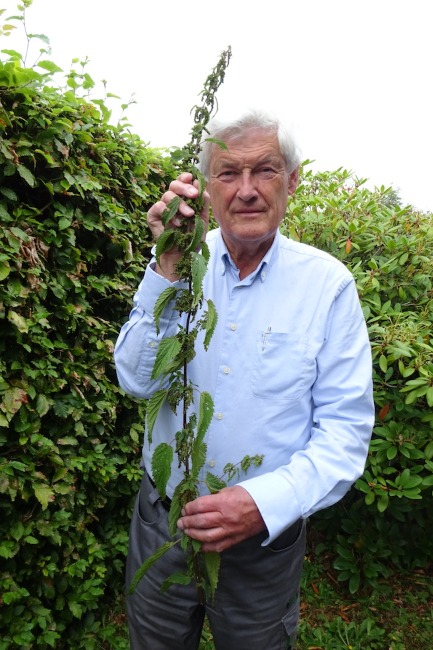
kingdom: Plantae
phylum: Tracheophyta
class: Magnoliopsida
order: Rosales
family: Urticaceae
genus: Urtica
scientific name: Urtica dioica
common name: Skov-nælde
